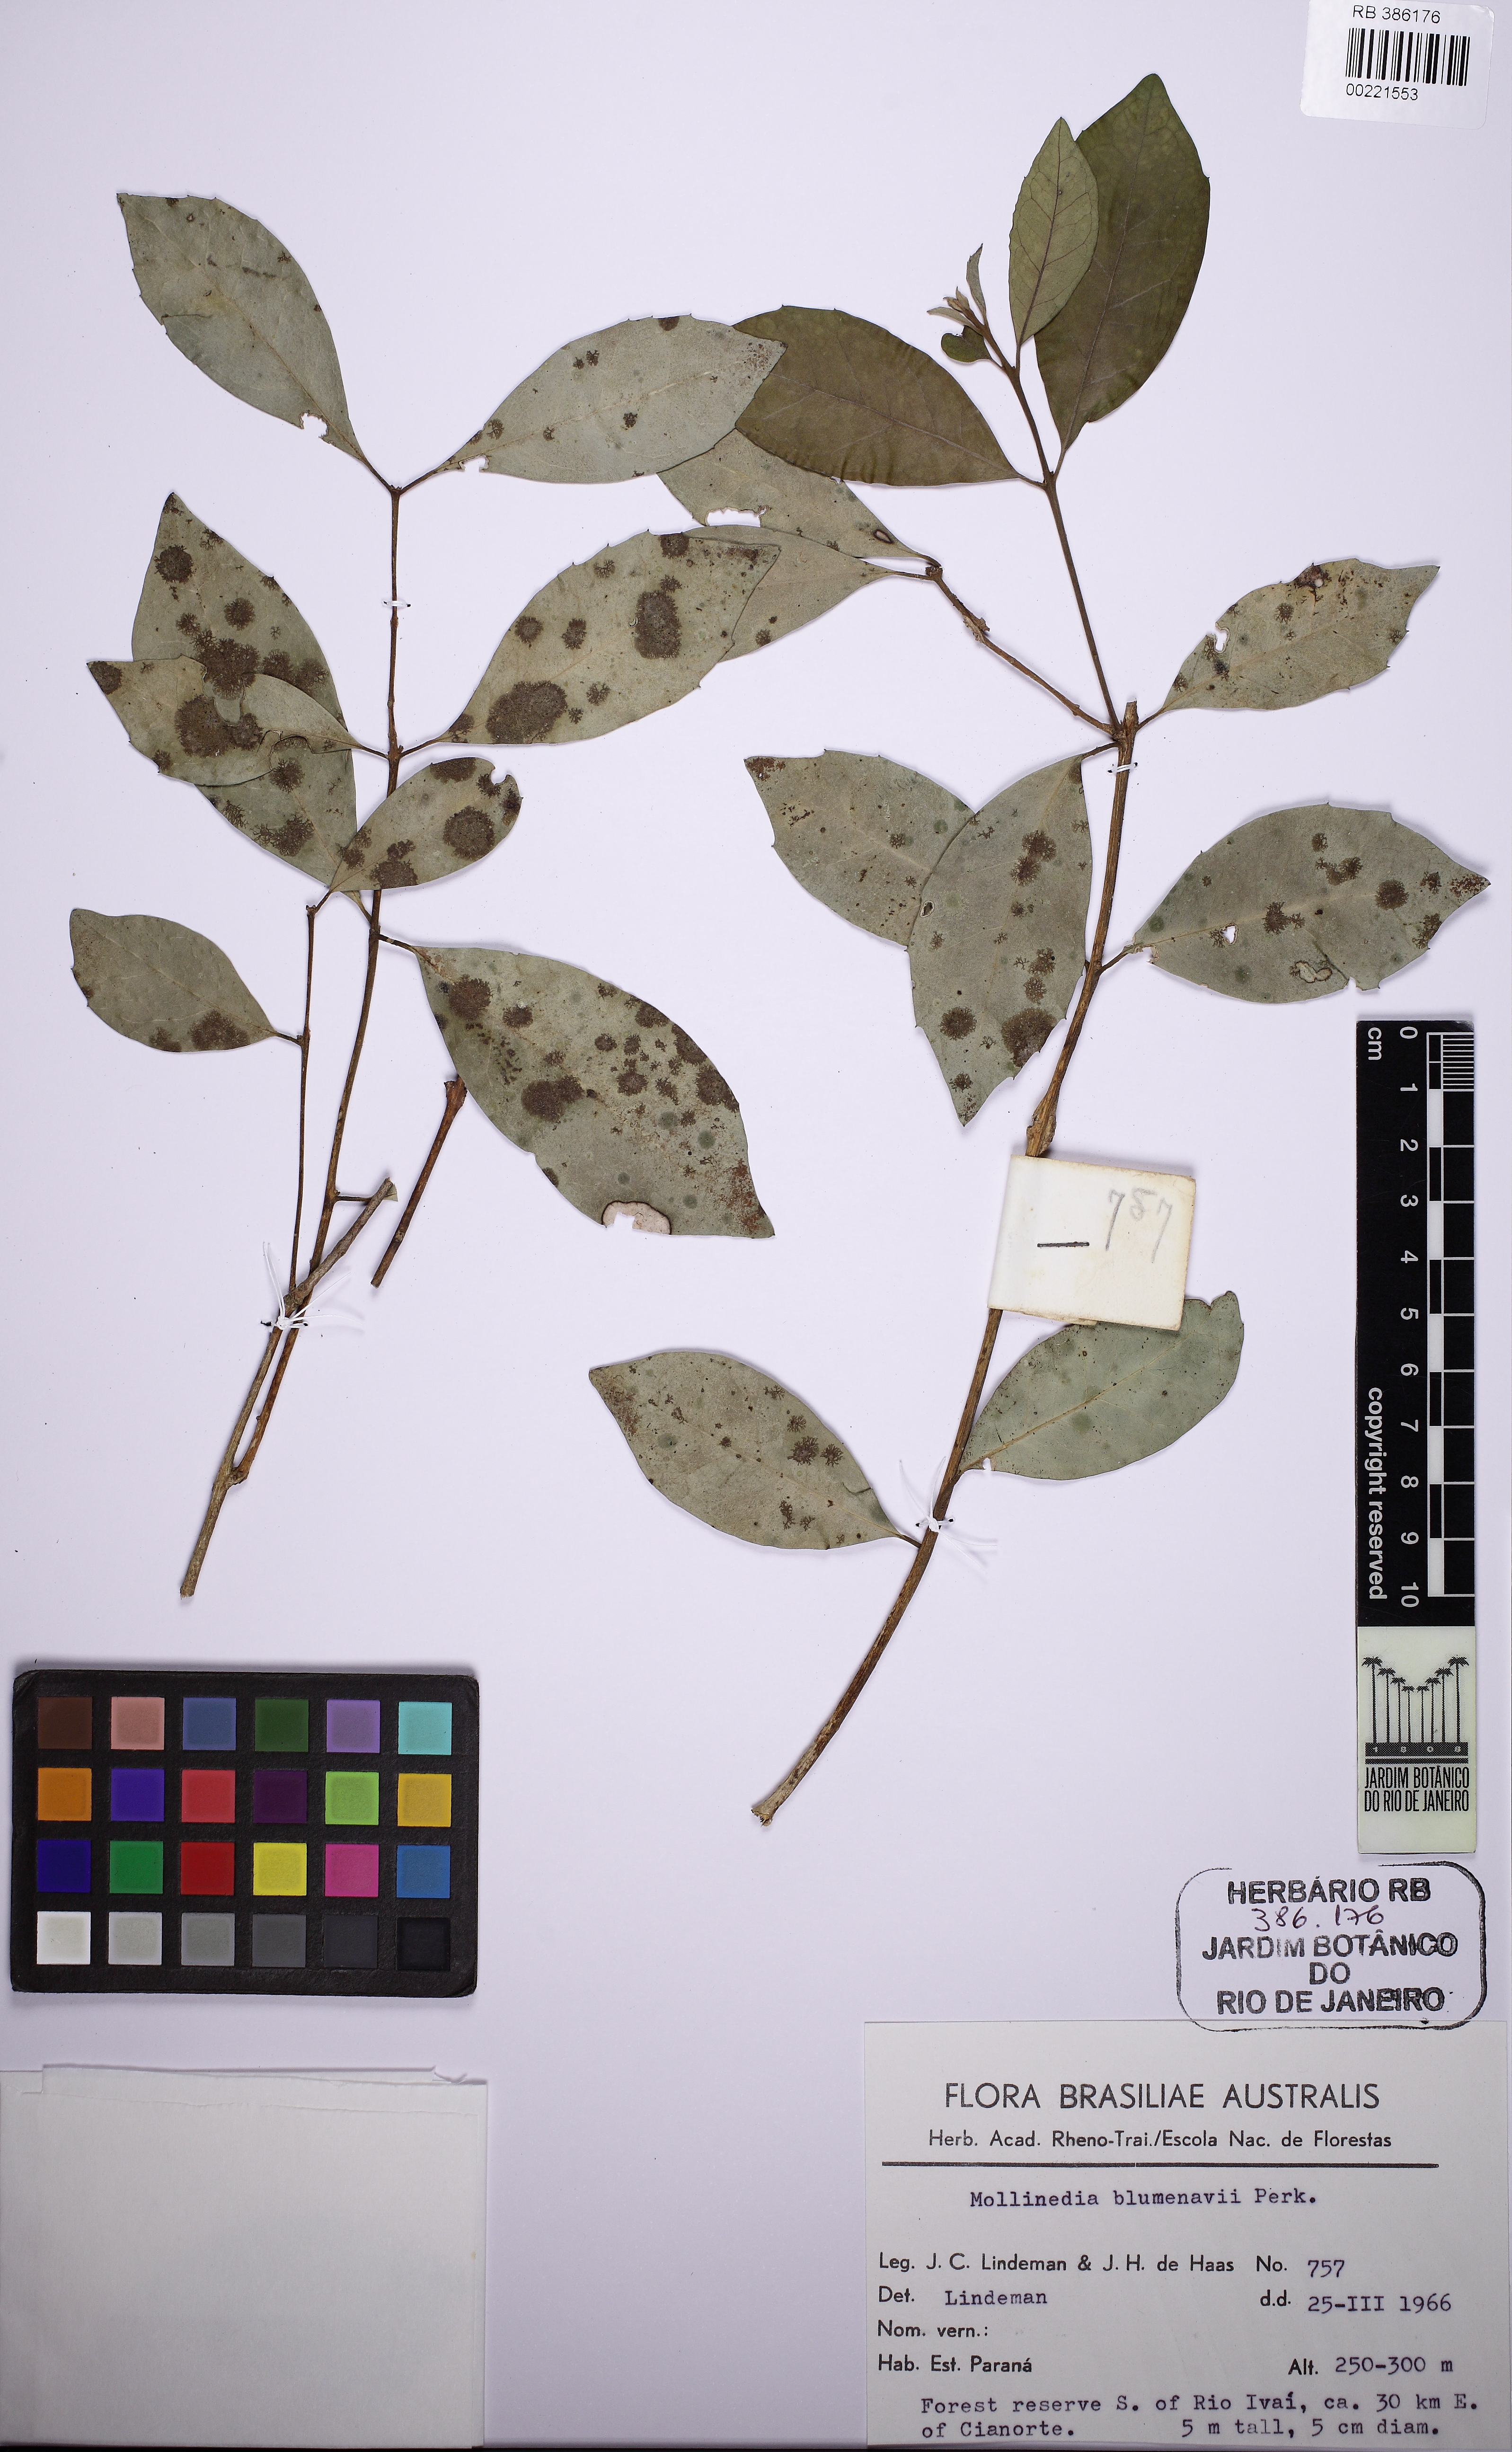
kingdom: Plantae
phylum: Tracheophyta
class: Magnoliopsida
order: Laurales
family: Monimiaceae
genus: Mollinedia
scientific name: Mollinedia pfitzeriana
